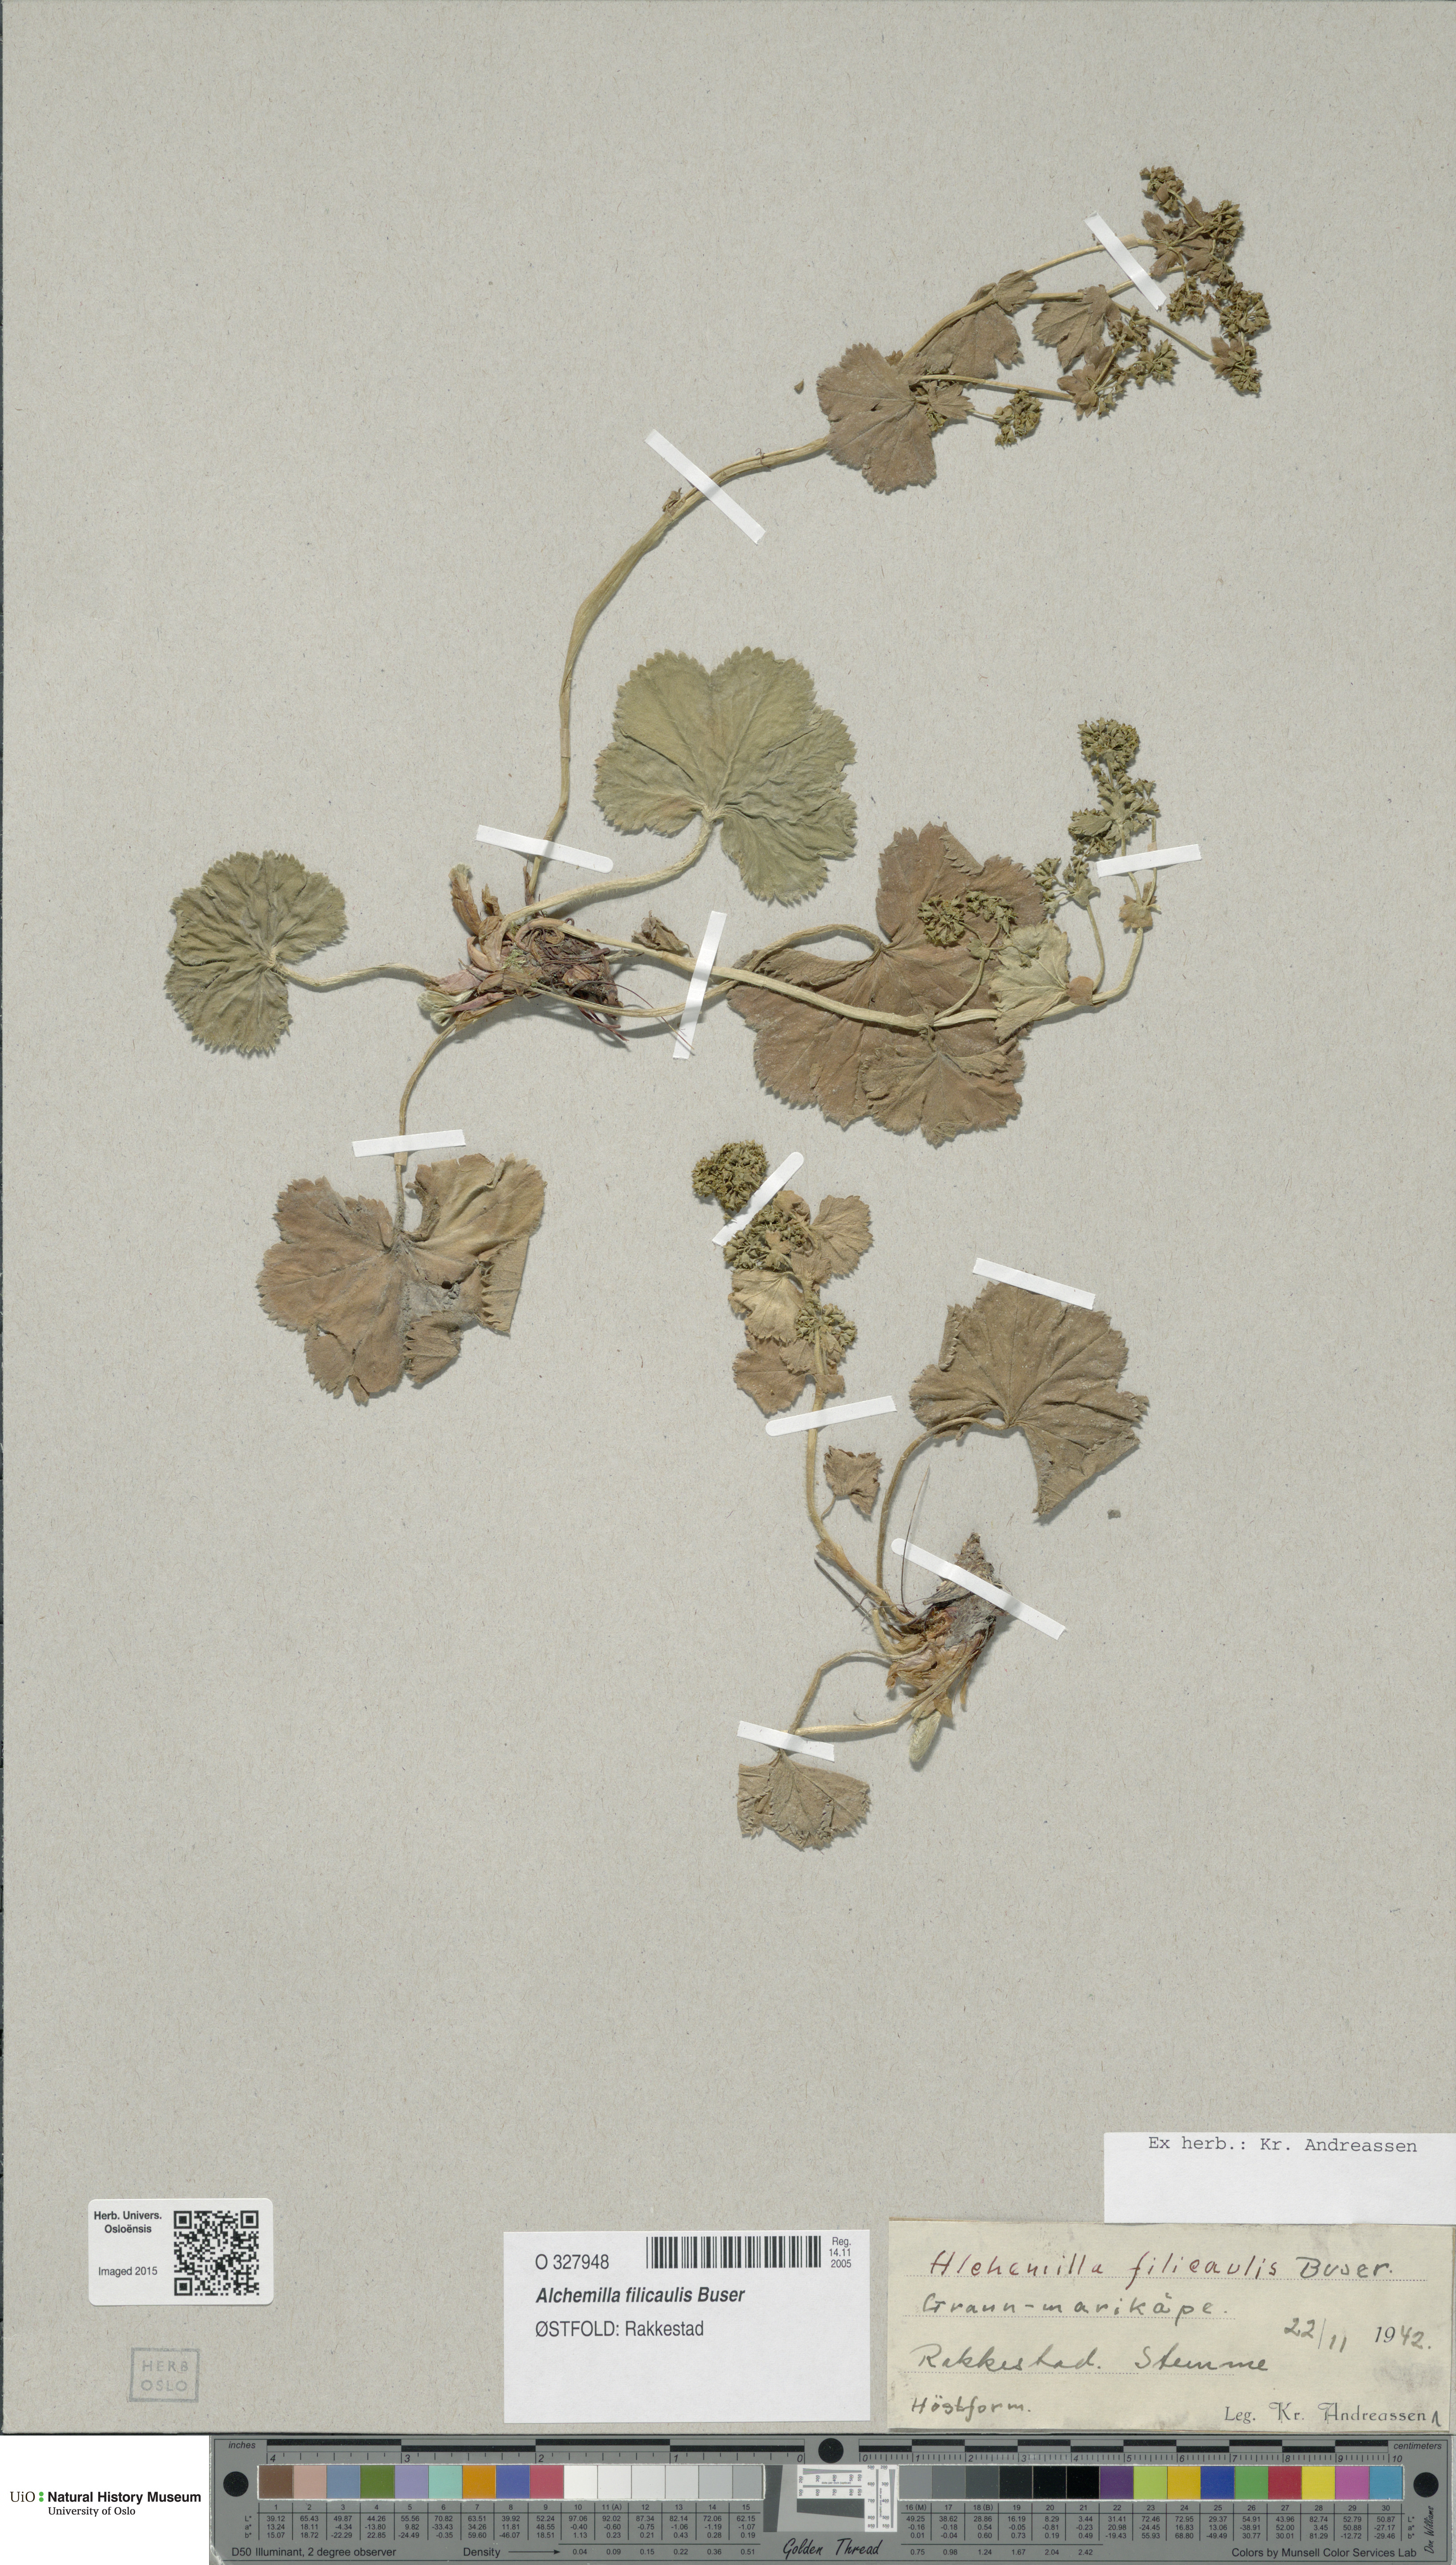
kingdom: Plantae
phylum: Tracheophyta
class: Magnoliopsida
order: Rosales
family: Rosaceae
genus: Alchemilla
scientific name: Alchemilla filicaulis
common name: Hairy lady's-mantle
